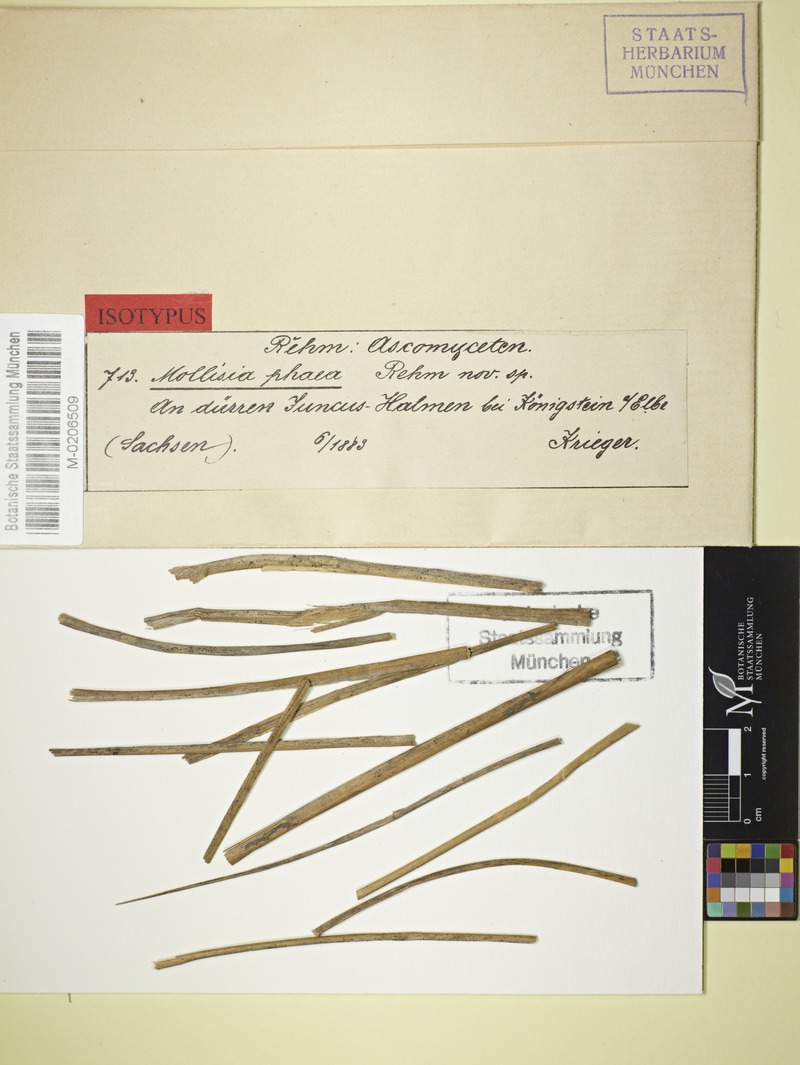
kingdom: Fungi
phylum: Ascomycota
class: Leotiomycetes
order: Helotiales
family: Mollisiaceae
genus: Nimbomollisia
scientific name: Nimbomollisia eriophori
